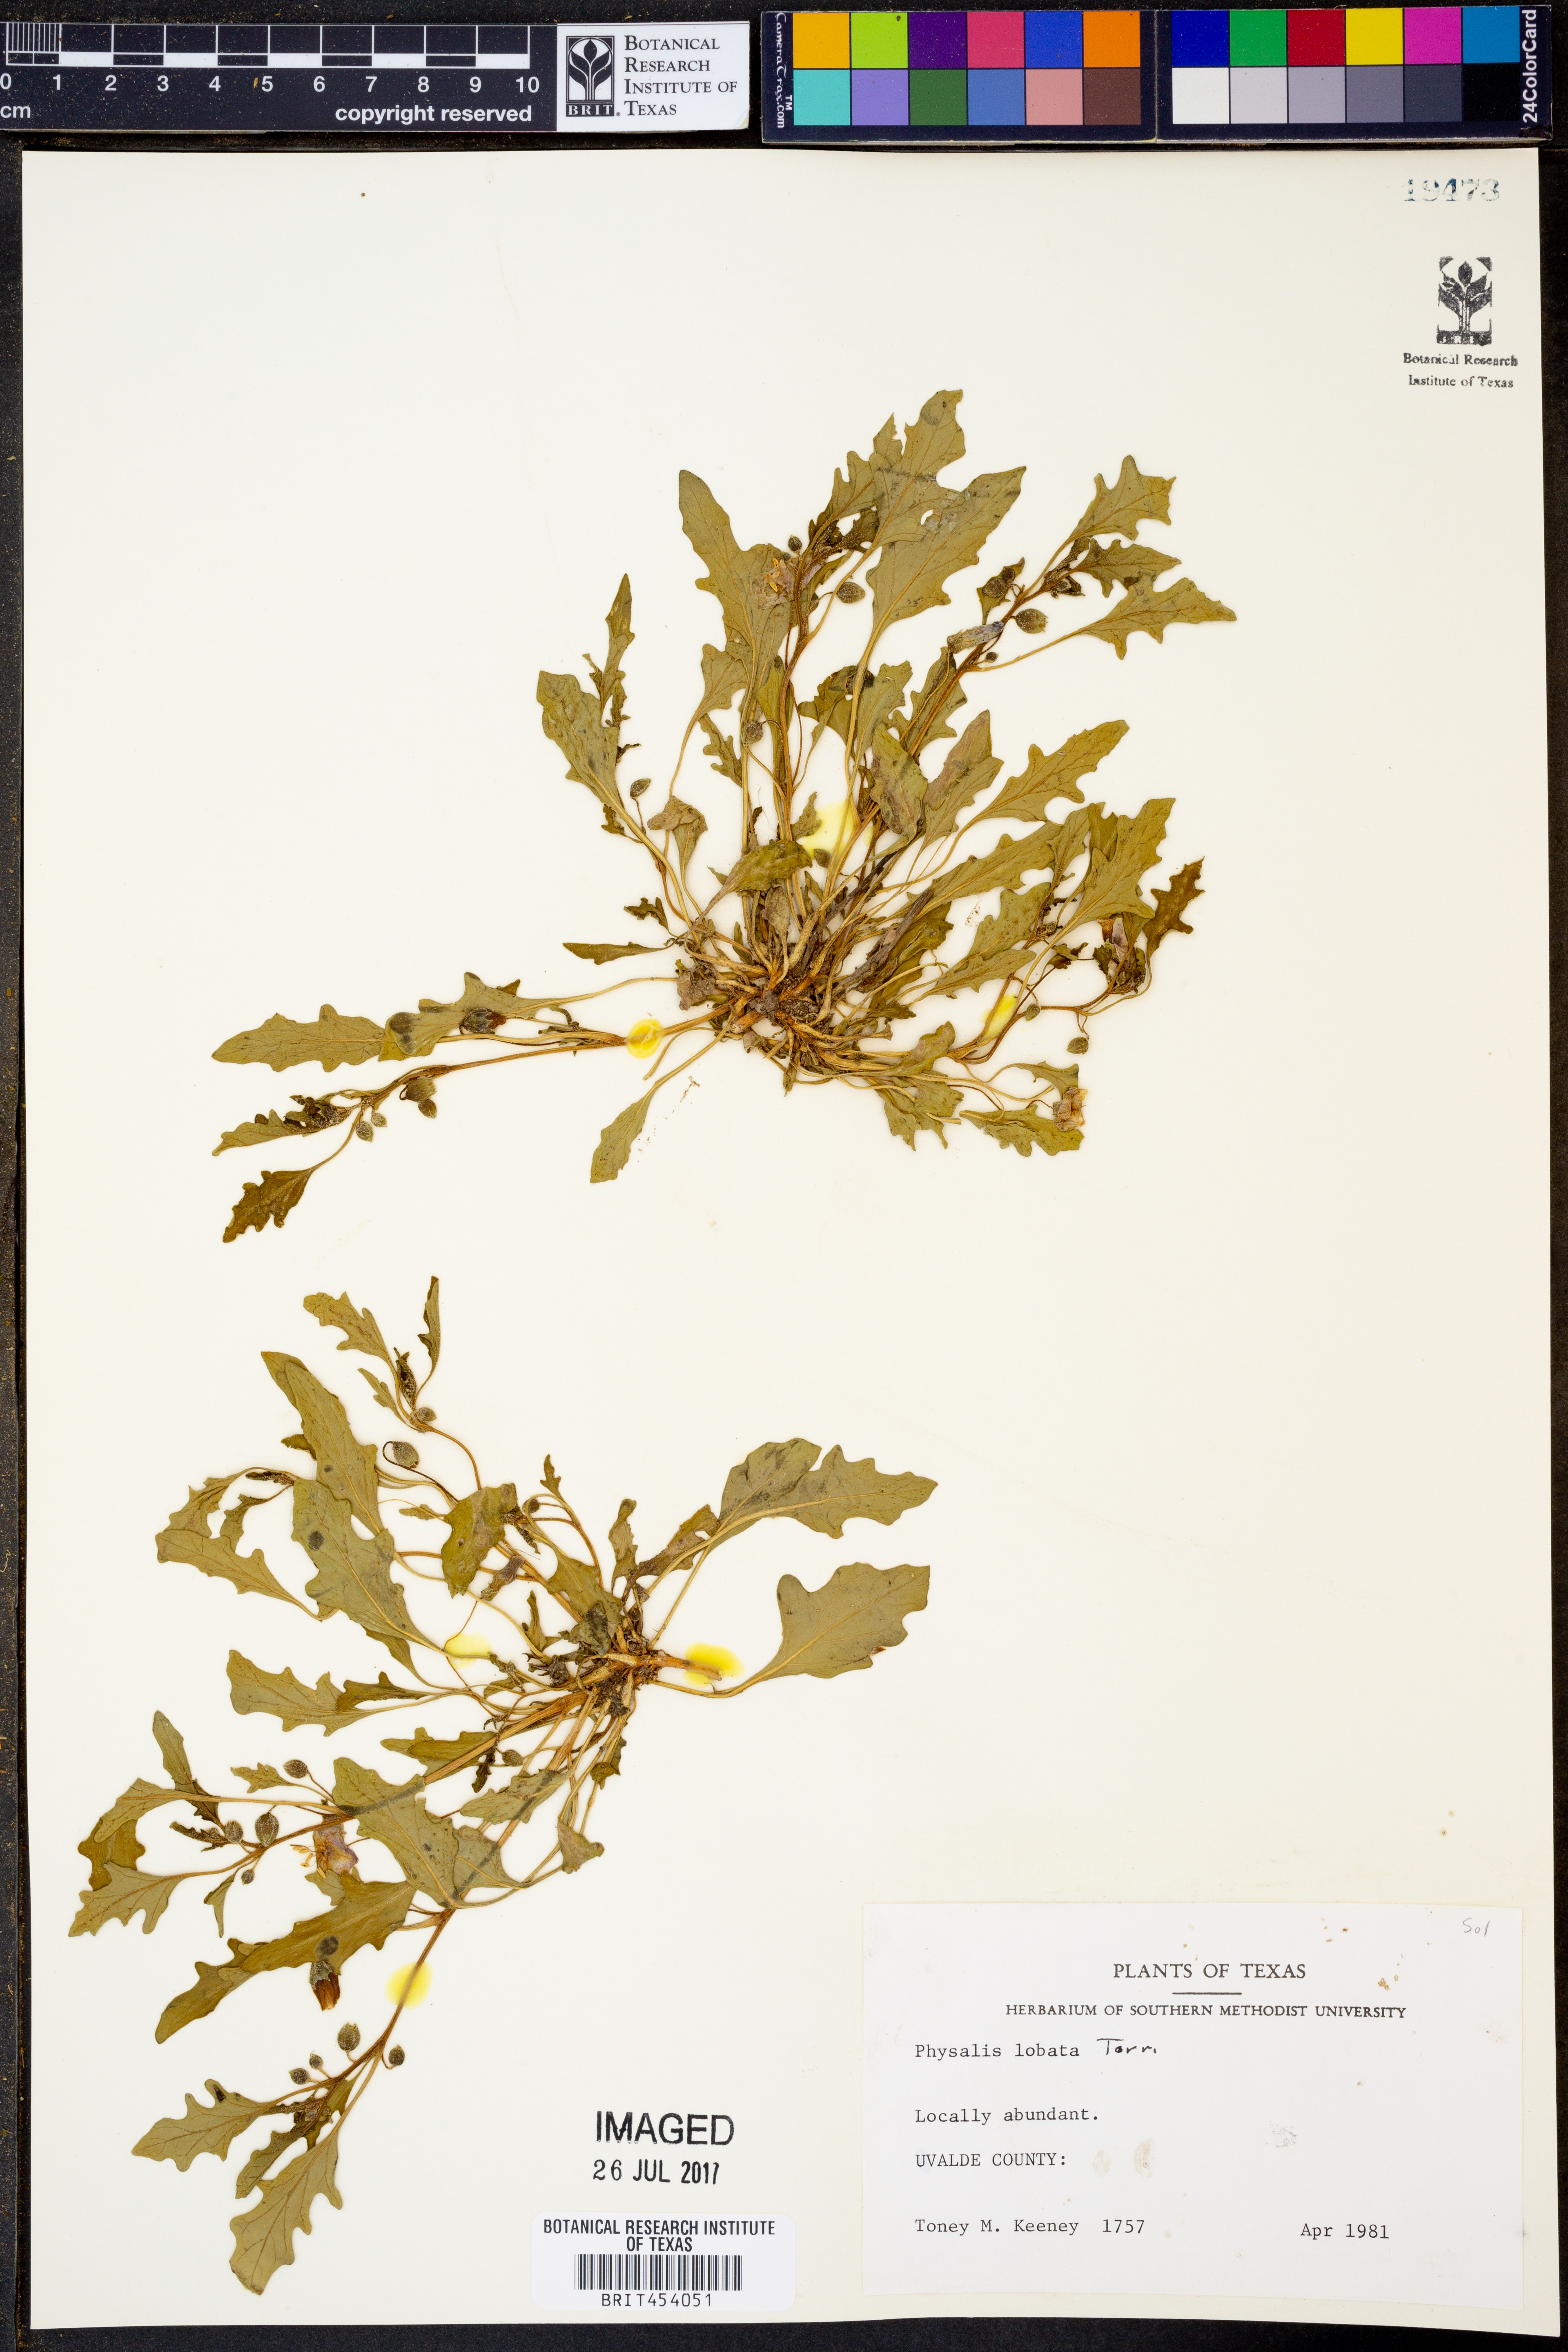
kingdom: Plantae
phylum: Tracheophyta
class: Magnoliopsida
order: Solanales
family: Solanaceae
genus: Quincula
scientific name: Quincula lobata
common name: Purple-ground-cherry
